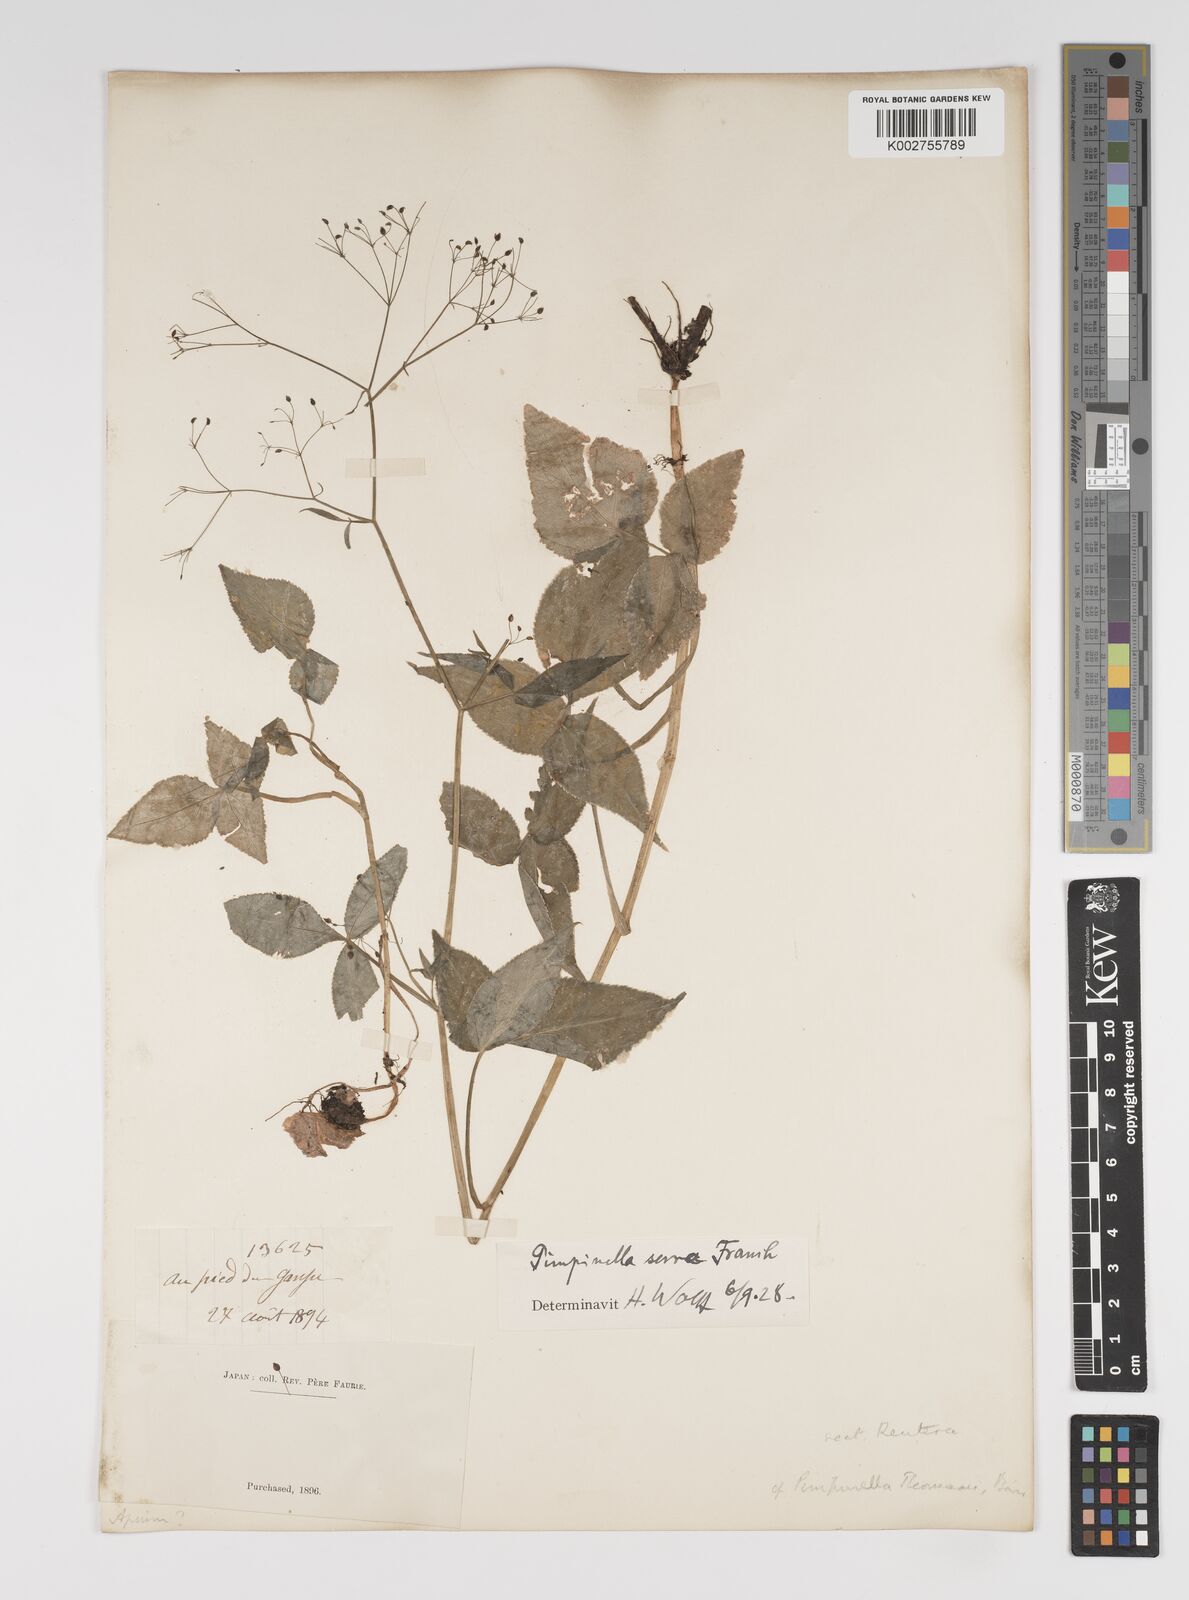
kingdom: Plantae
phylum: Tracheophyta
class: Magnoliopsida
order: Apiales
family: Apiaceae
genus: Sium
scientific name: Sium serra
